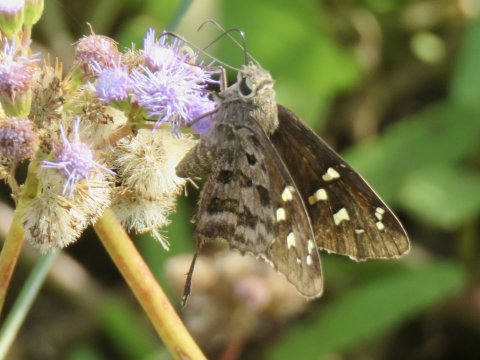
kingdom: Animalia
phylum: Arthropoda
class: Insecta
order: Lepidoptera
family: Hesperiidae
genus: Urbanus
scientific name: Urbanus dorantes
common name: Dorantes Longtail
